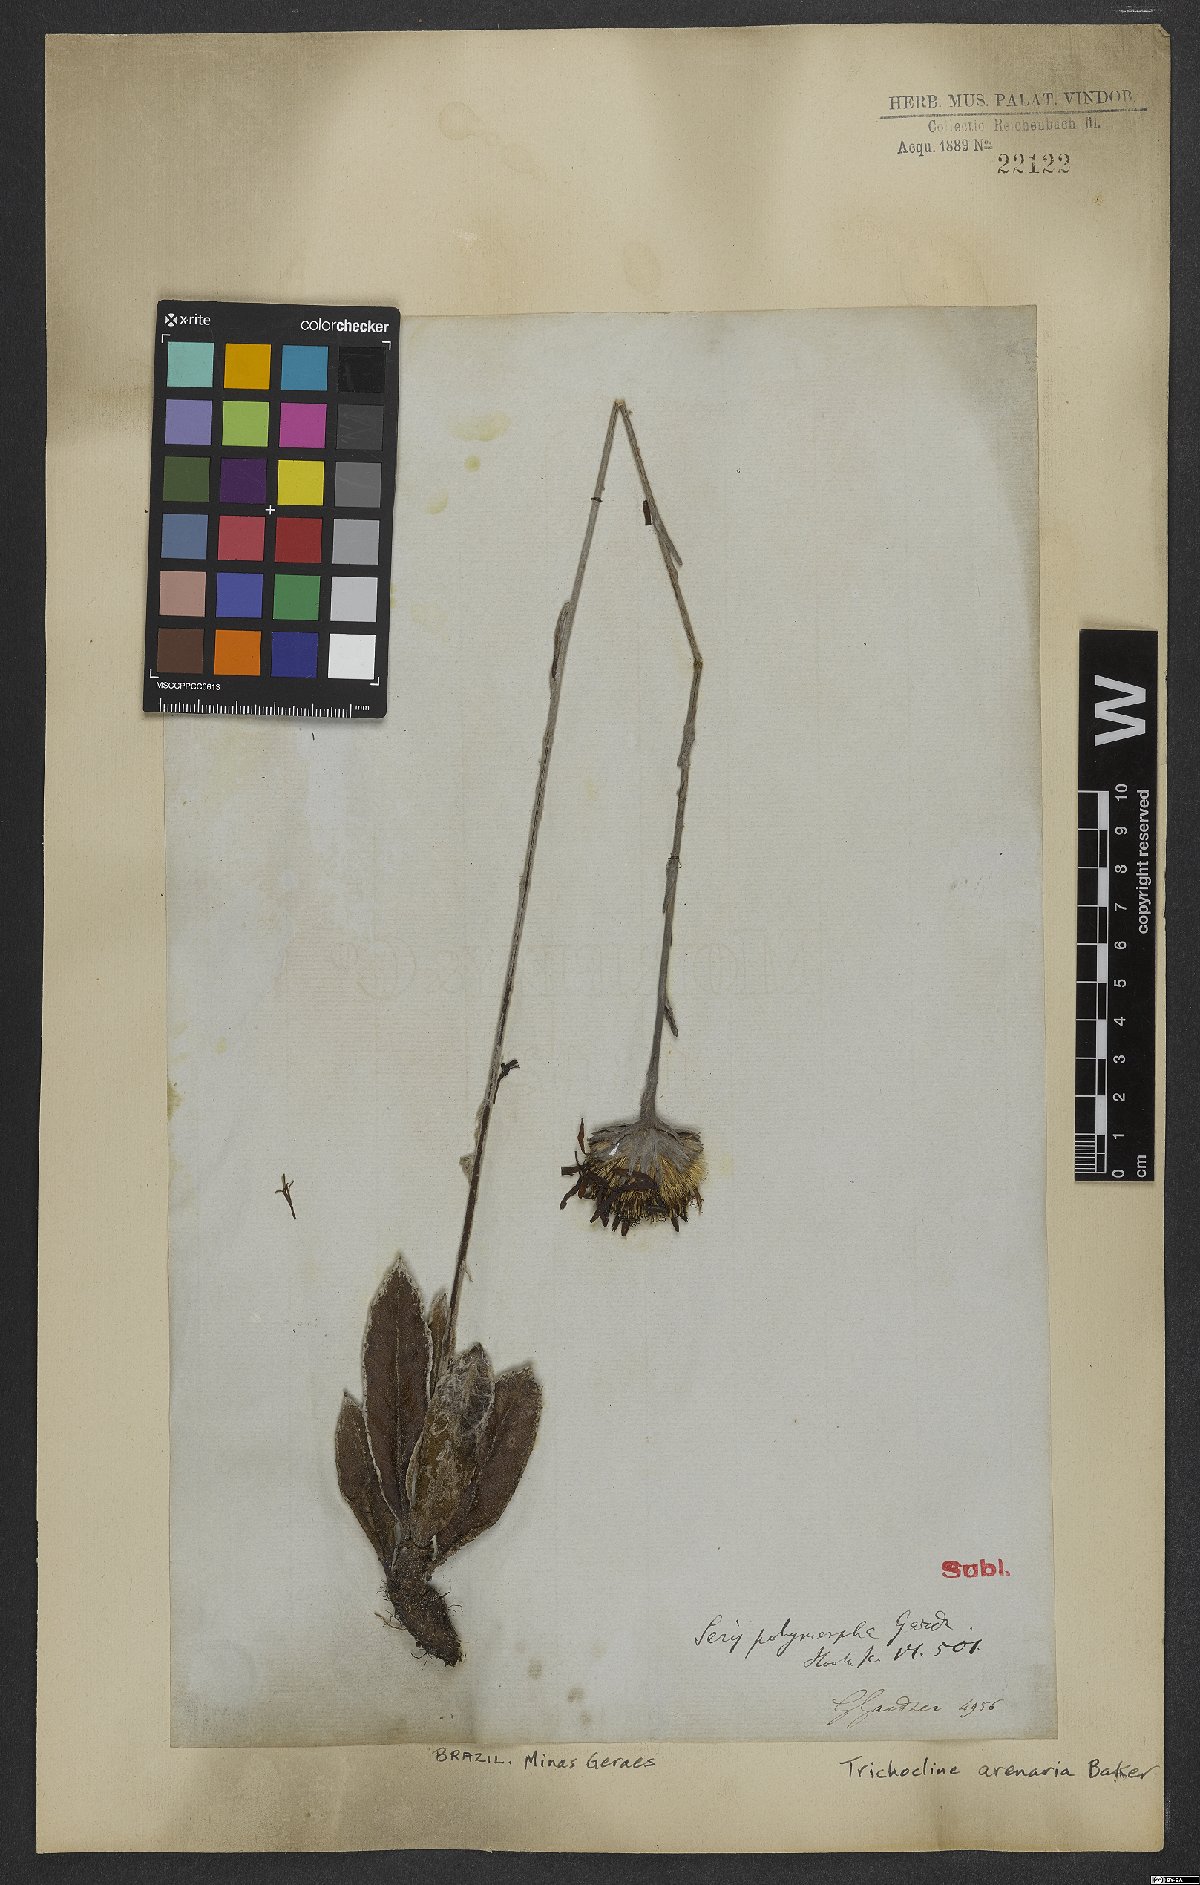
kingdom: Plantae
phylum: Tracheophyta
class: Magnoliopsida
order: Asterales
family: Asteraceae
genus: Richterago
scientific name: Richterago arenaria
